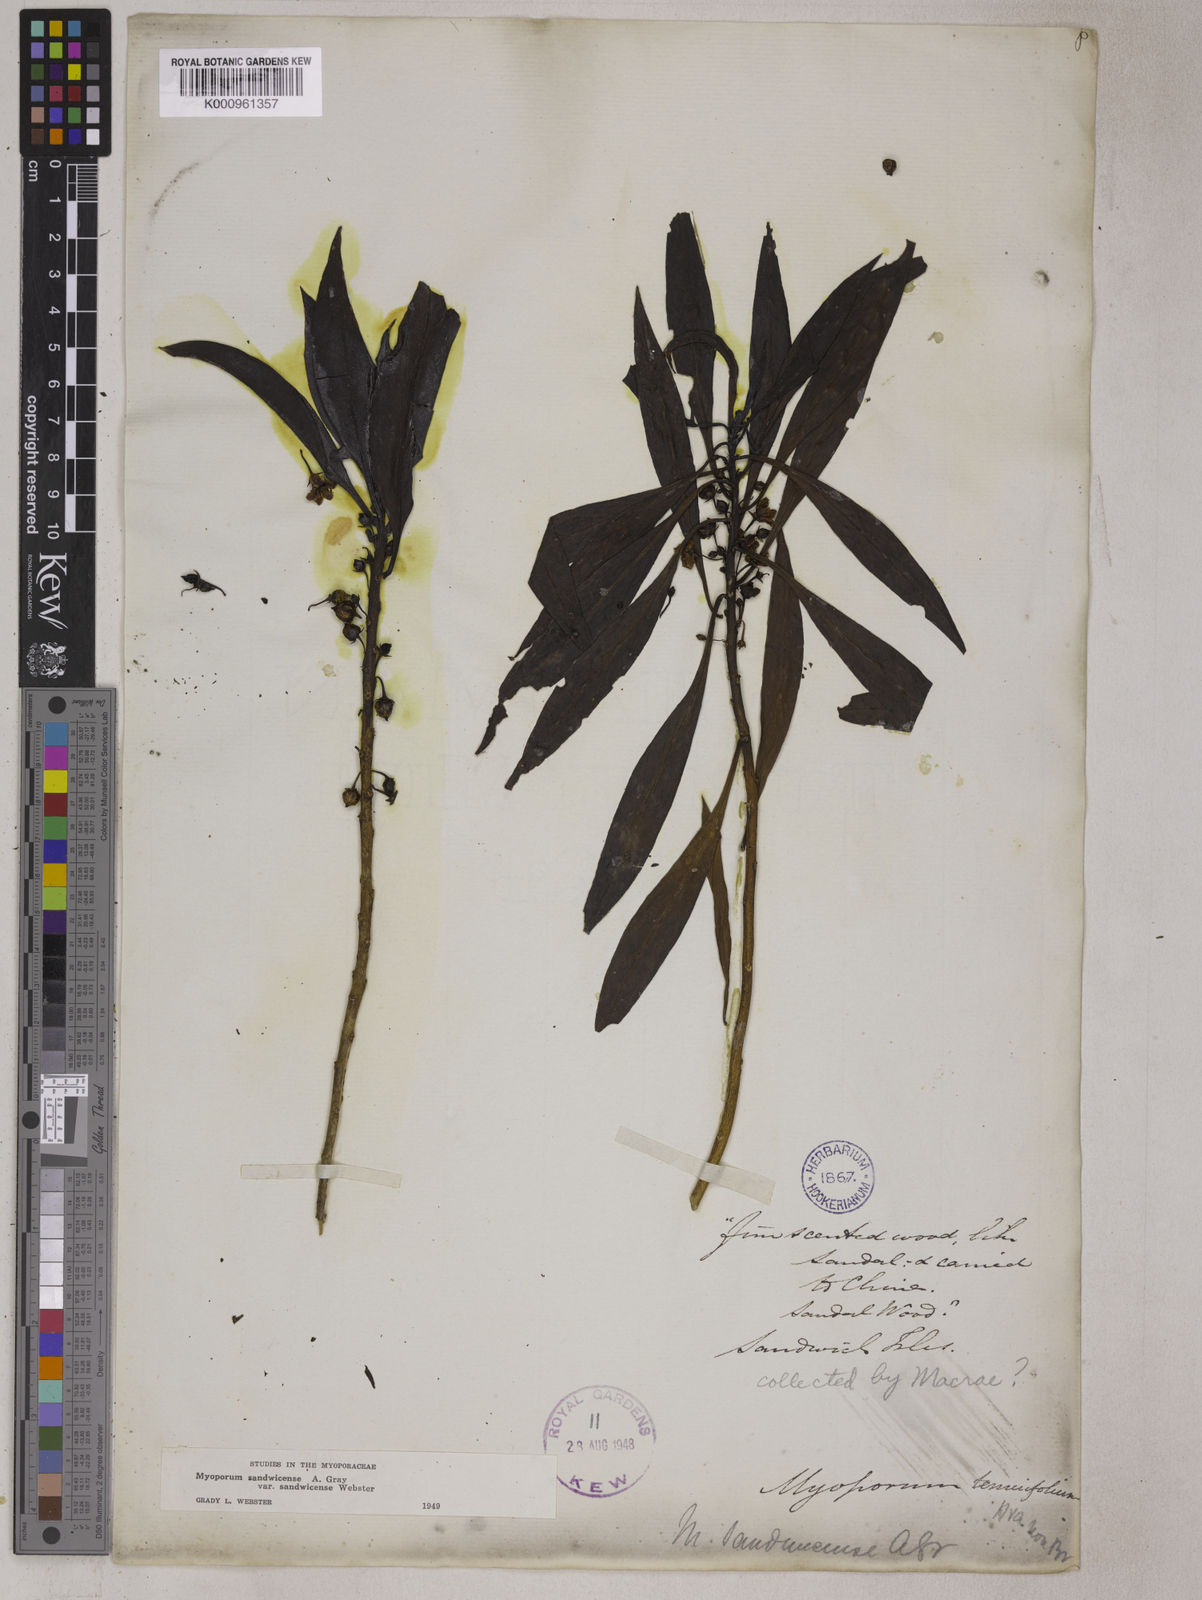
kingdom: Plantae
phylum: Tracheophyta
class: Magnoliopsida
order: Lamiales
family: Scrophulariaceae
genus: Myoporum
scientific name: Myoporum sandwicense
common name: Bastard-sandalwood
